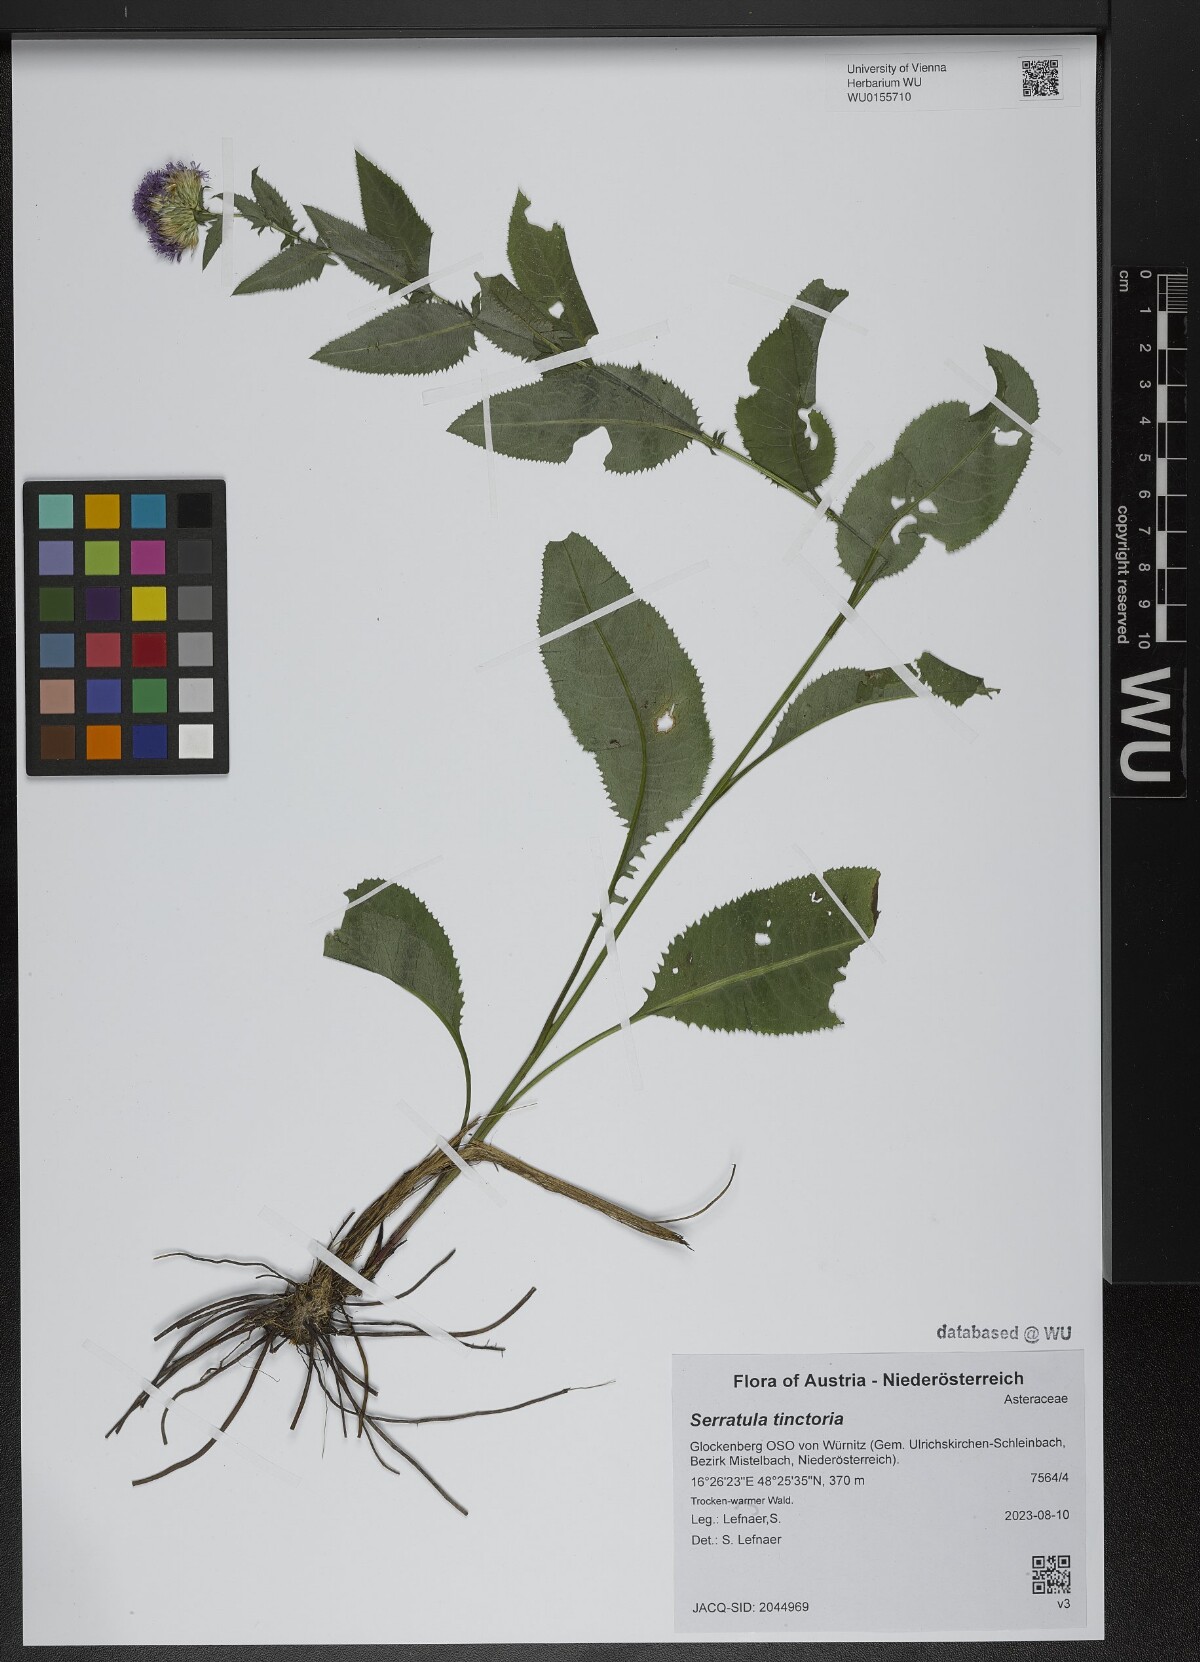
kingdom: Plantae
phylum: Tracheophyta
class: Magnoliopsida
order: Asterales
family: Asteraceae
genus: Serratula
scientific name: Serratula tinctoria
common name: Saw-wort
